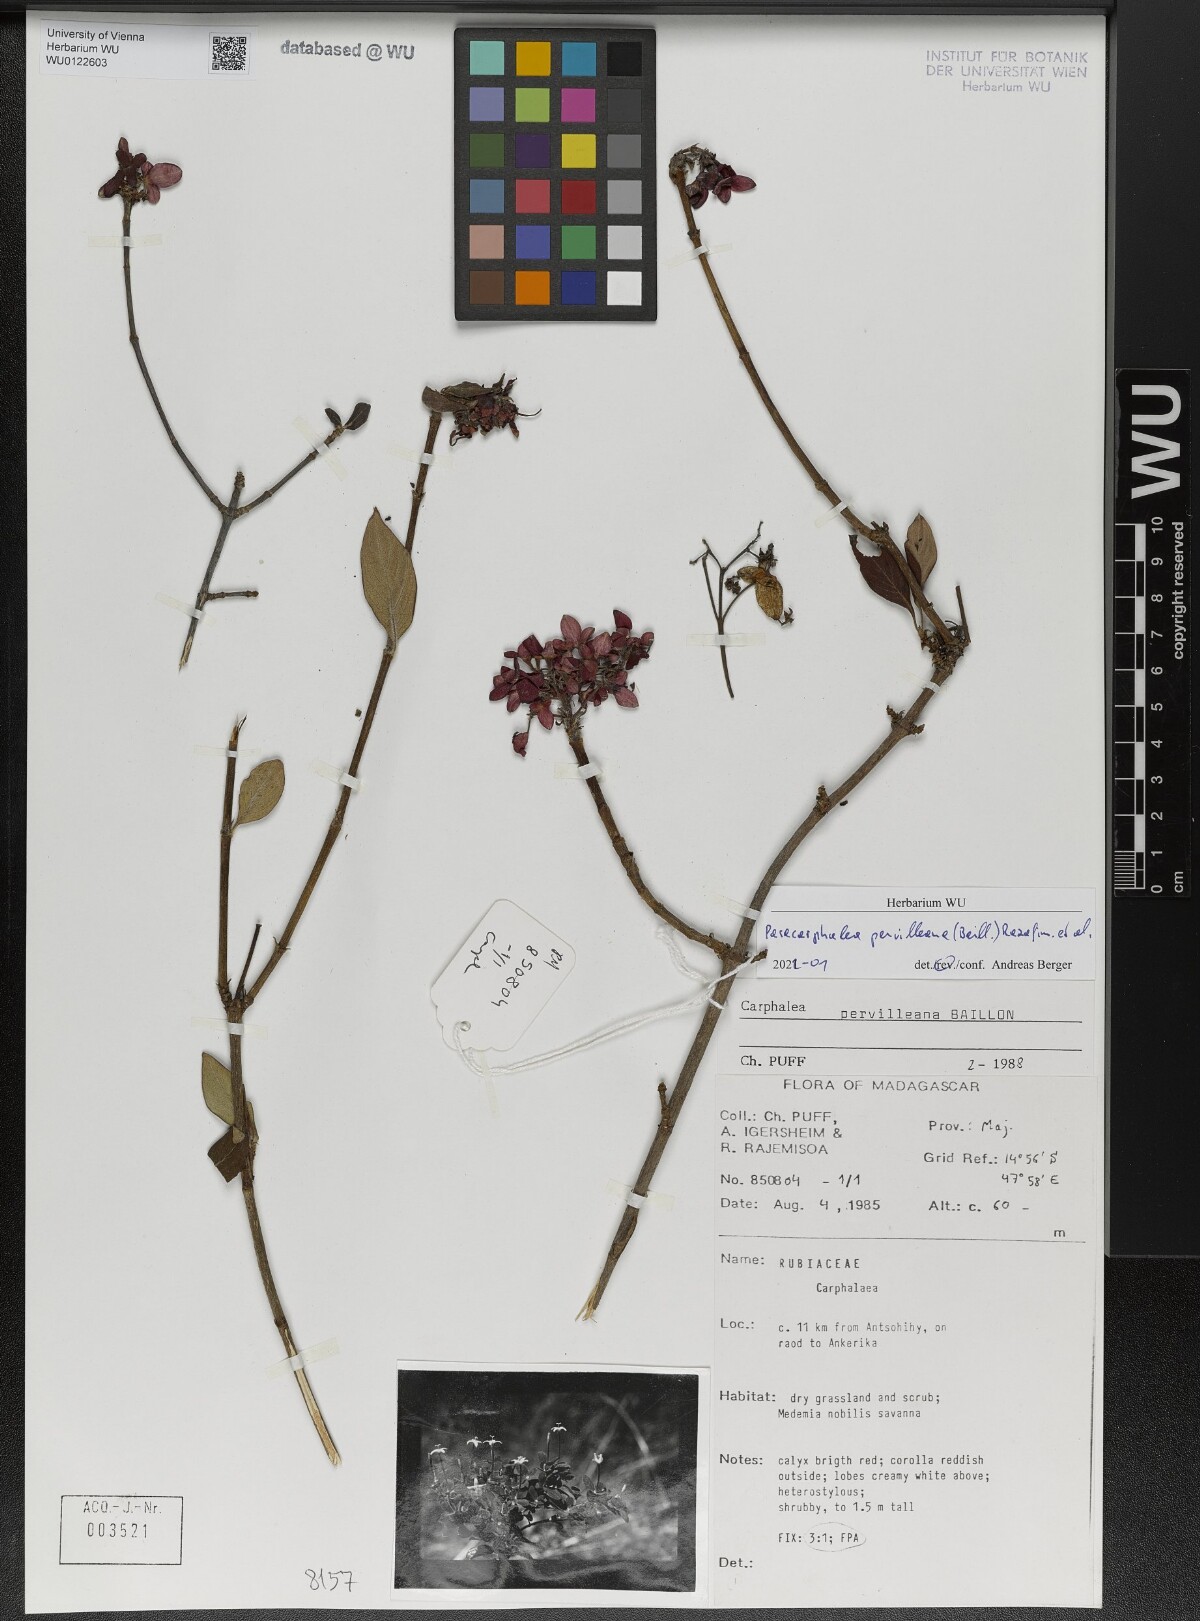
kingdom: Plantae
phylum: Tracheophyta
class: Magnoliopsida
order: Gentianales
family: Rubiaceae
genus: Paracarphalea
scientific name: Paracarphalea pervilleana
